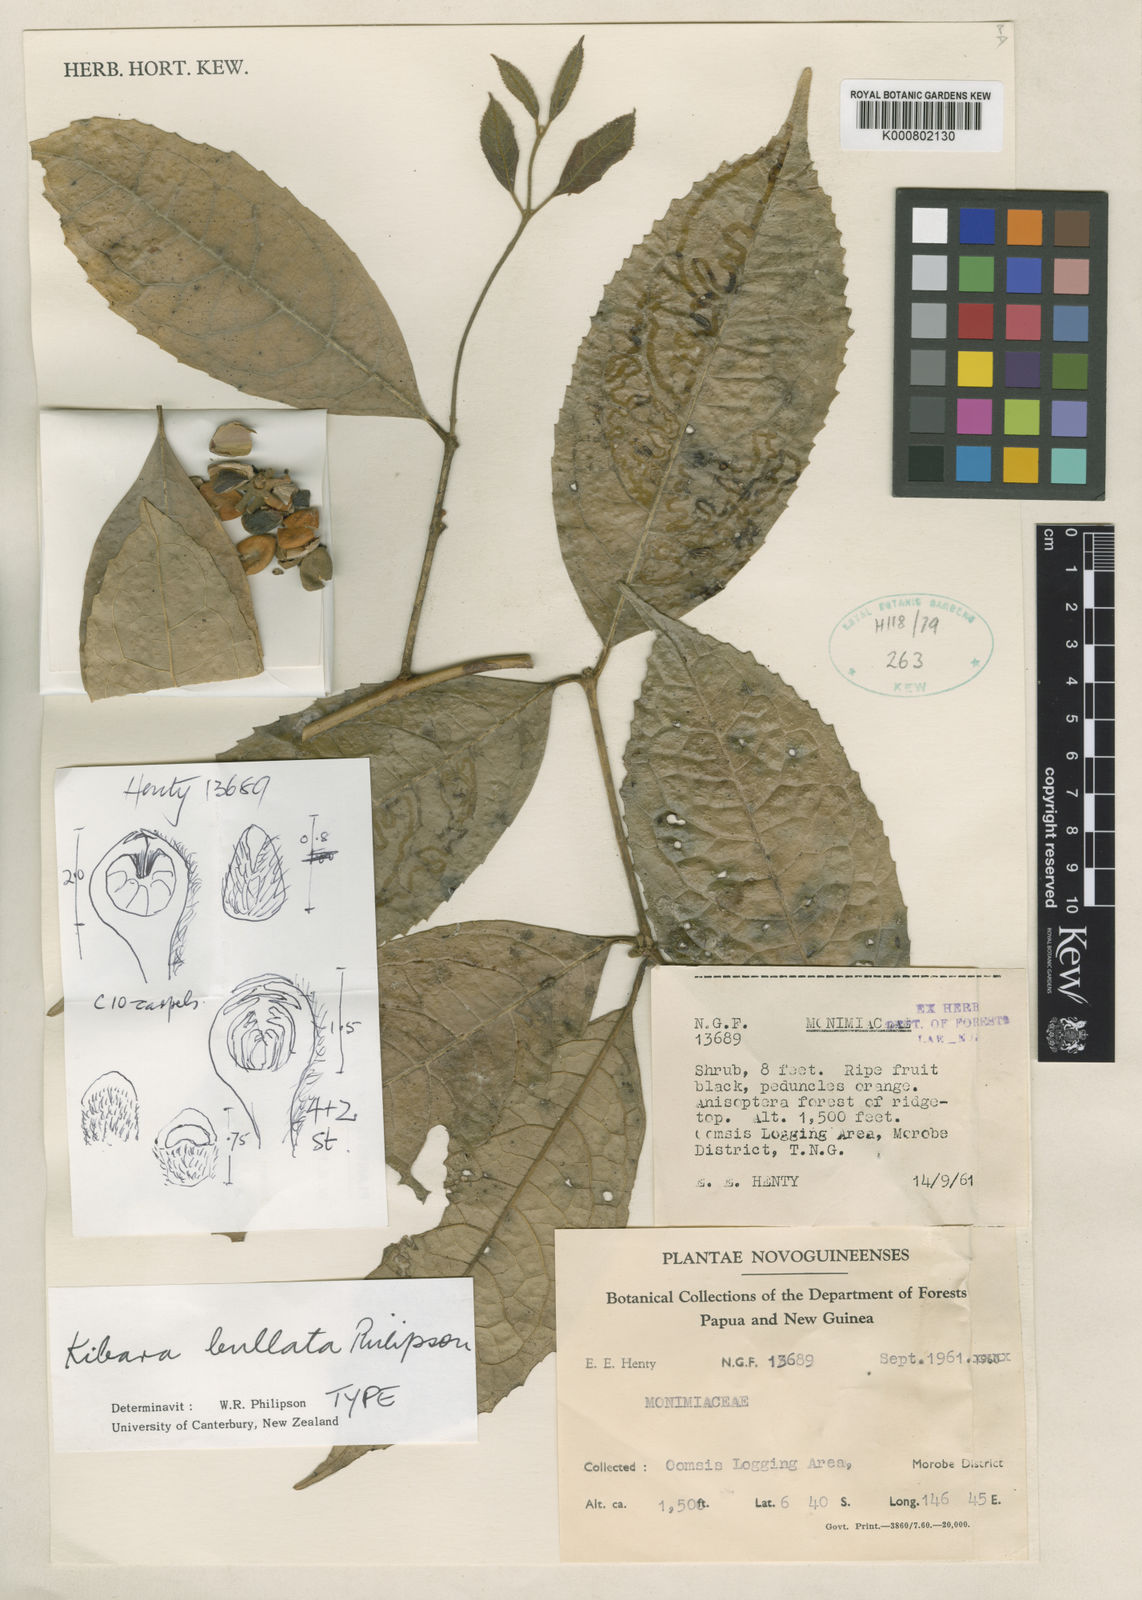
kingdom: Plantae
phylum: Tracheophyta
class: Magnoliopsida
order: Laurales
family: Monimiaceae
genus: Kibara
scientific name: Kibara bullata
